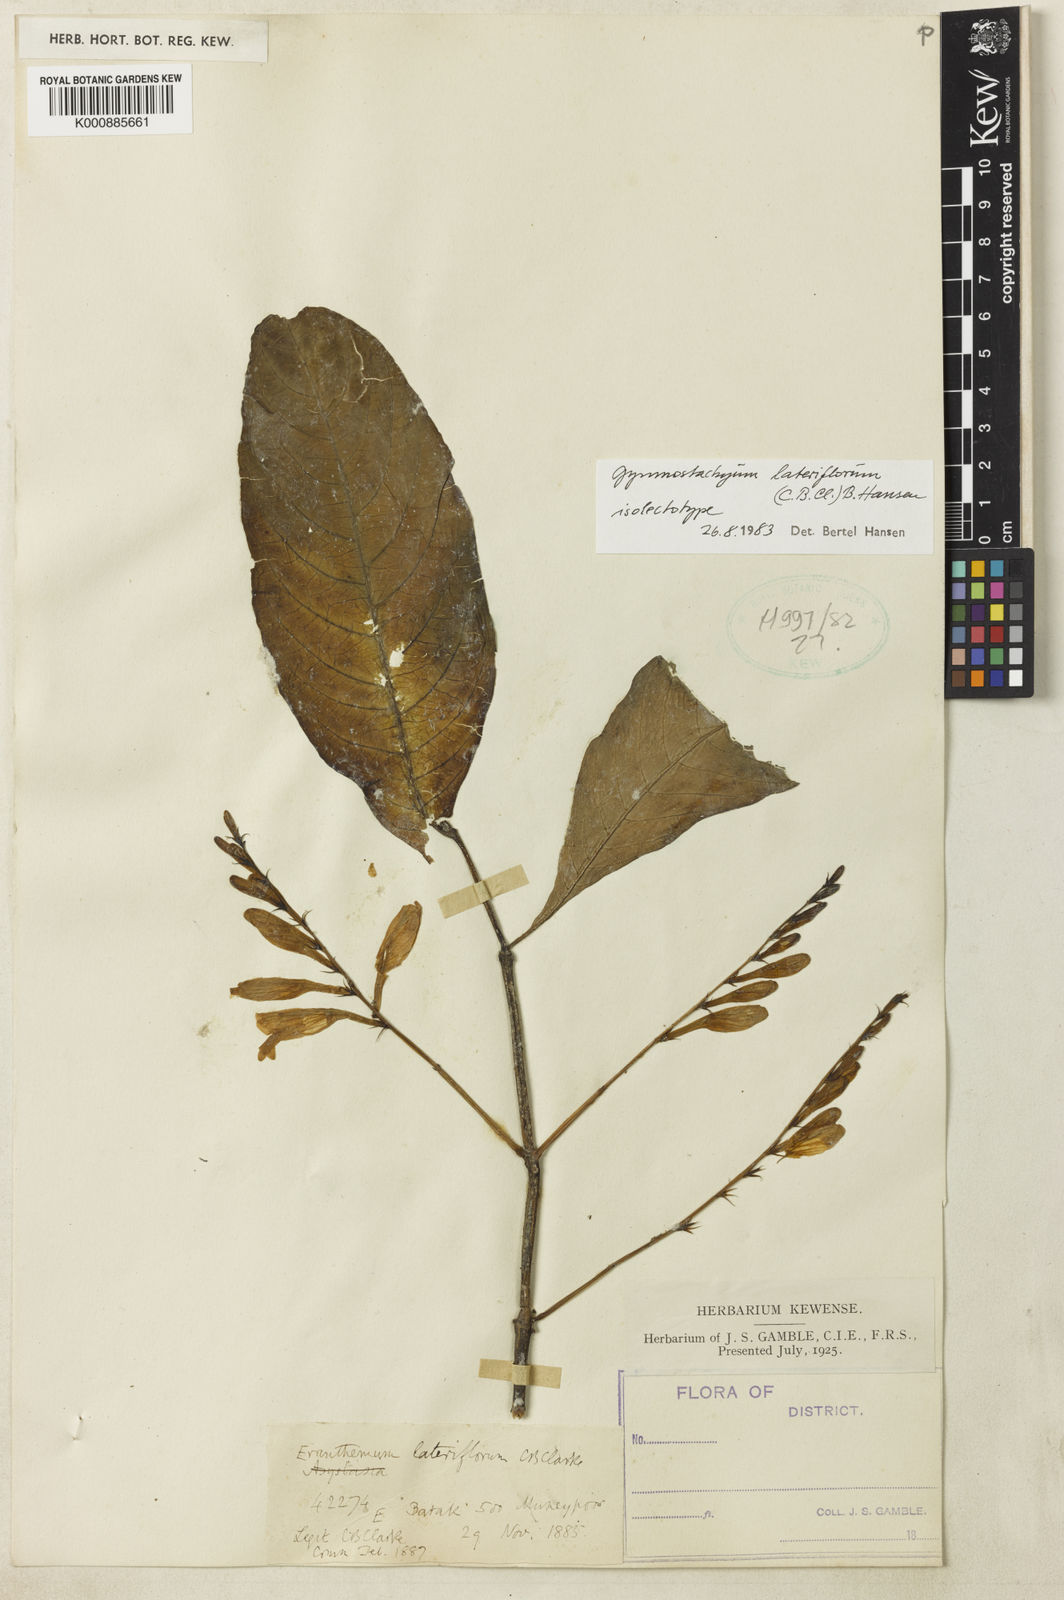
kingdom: Plantae
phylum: Tracheophyta
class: Magnoliopsida
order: Lamiales
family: Acanthaceae
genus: Gymnostachyum
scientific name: Gymnostachyum lateriflorum
